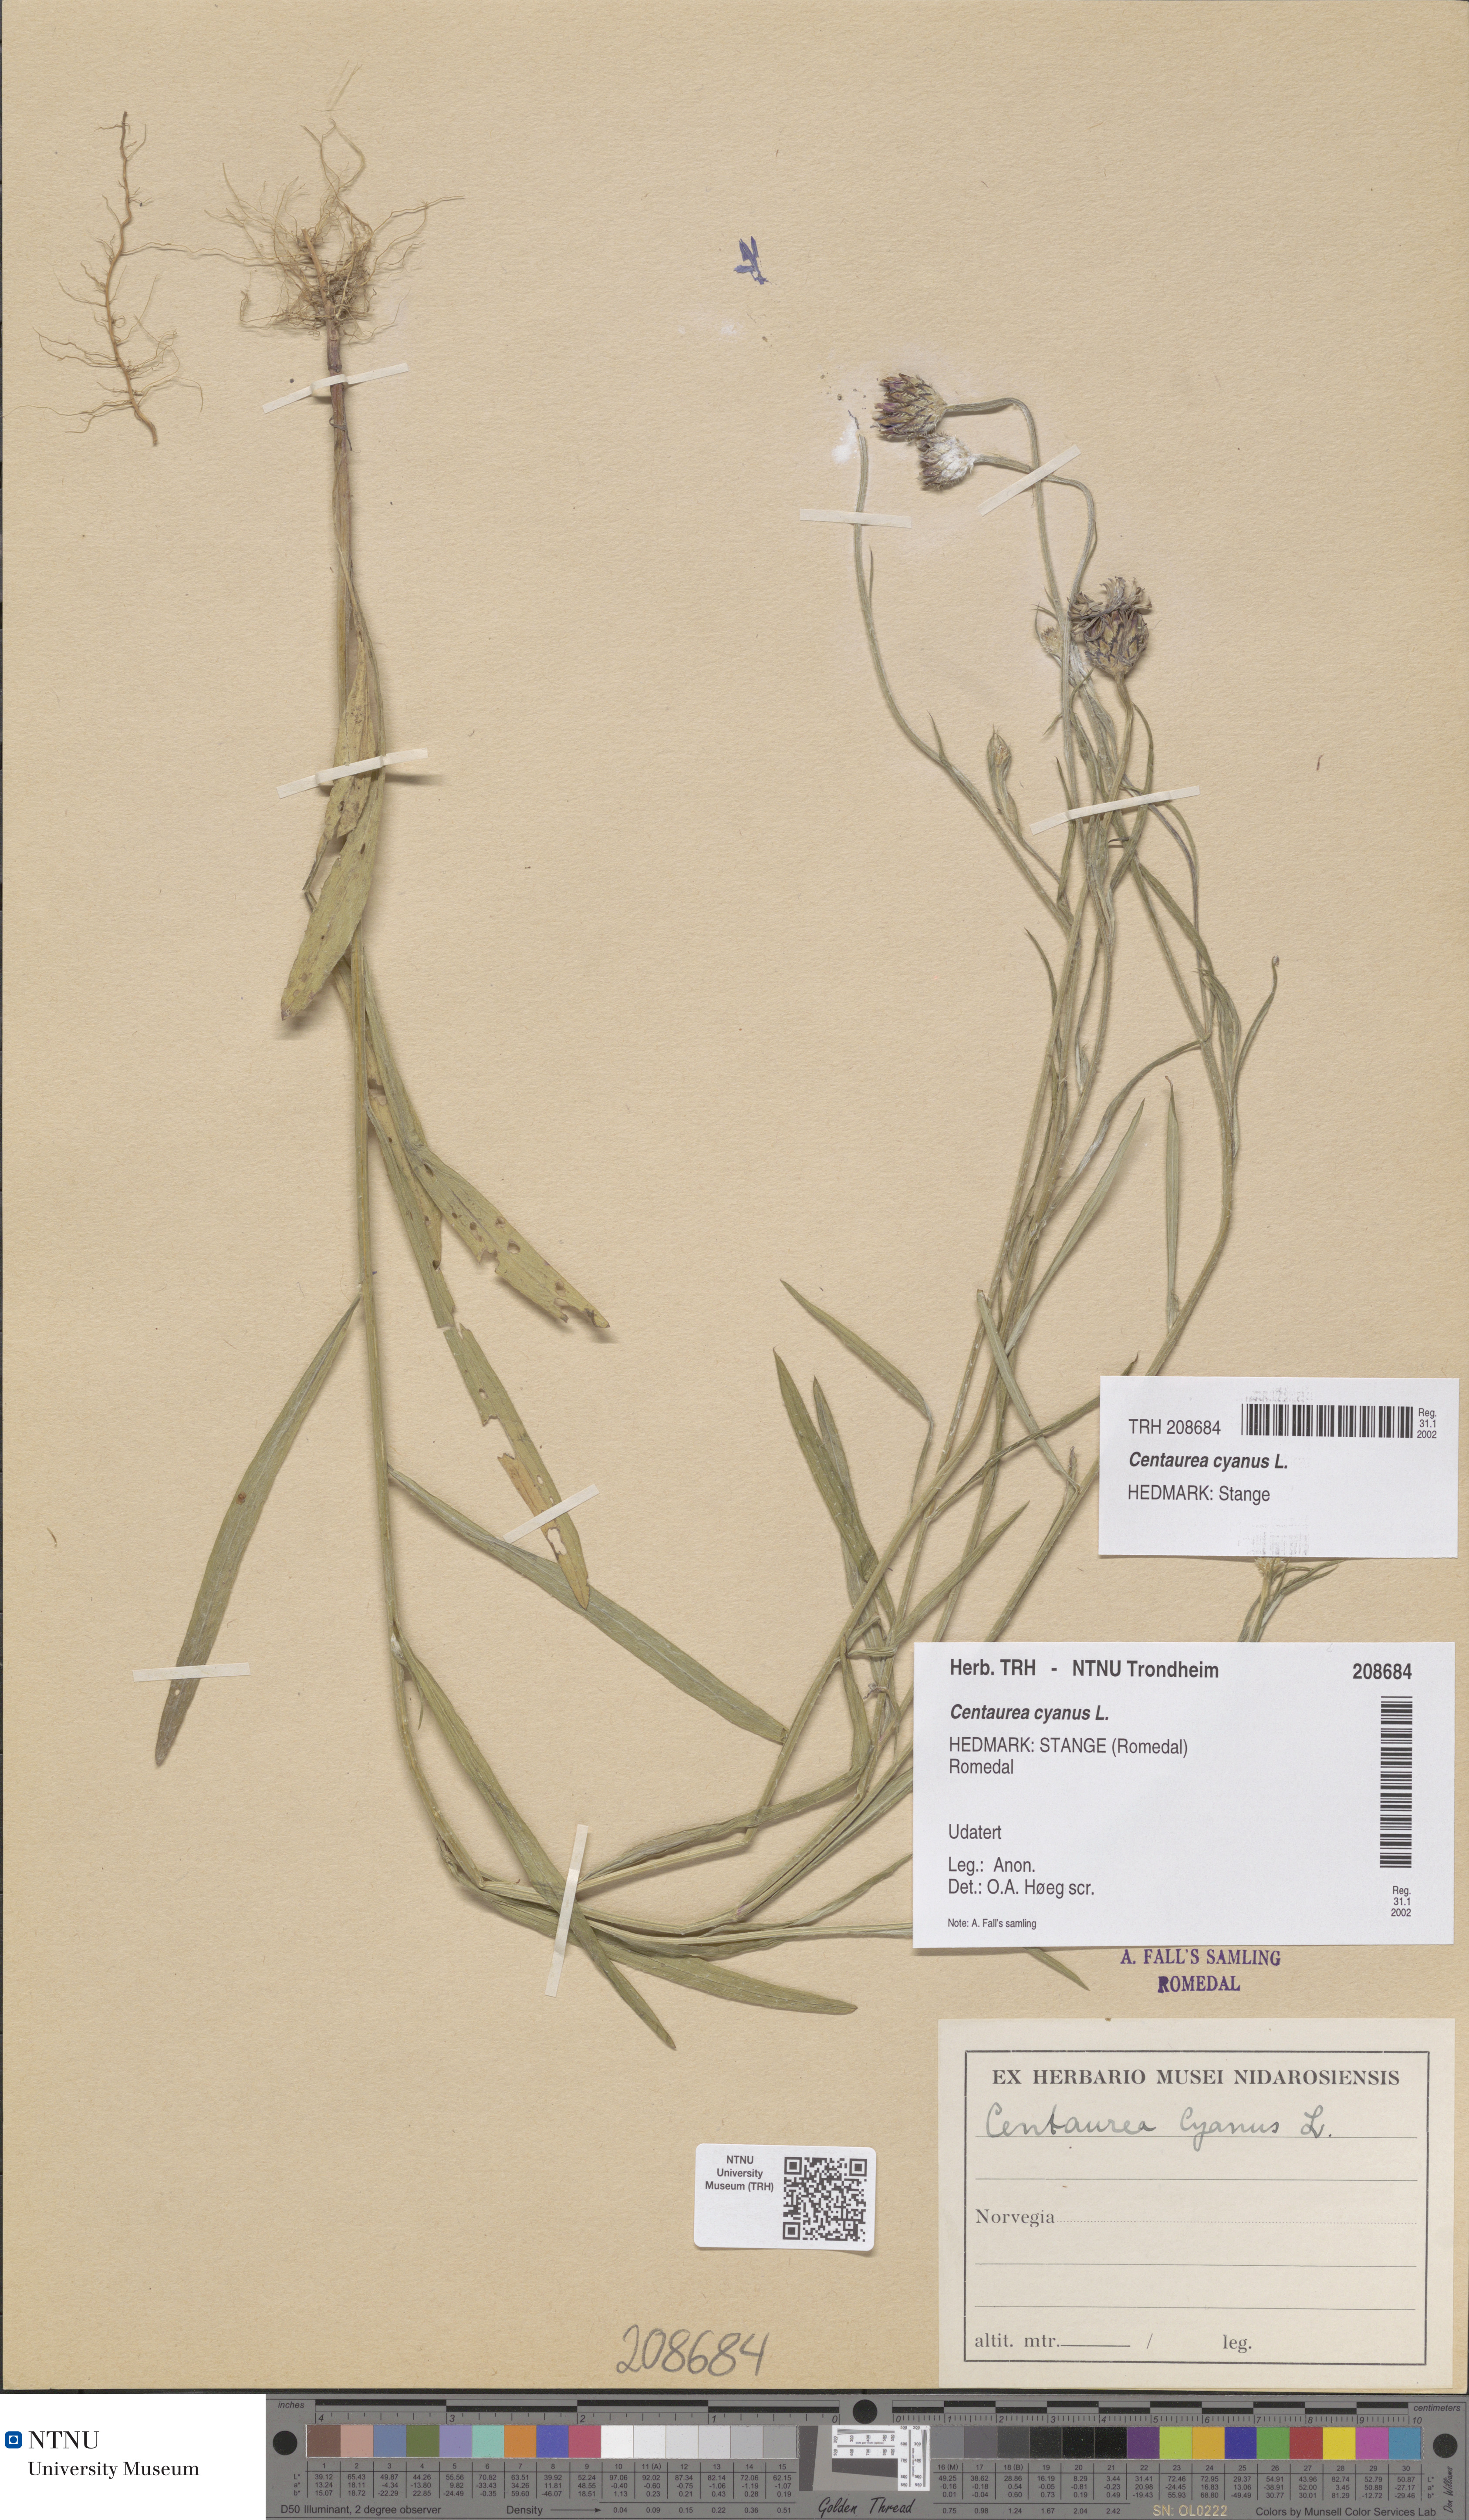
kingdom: Plantae
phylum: Tracheophyta
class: Magnoliopsida
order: Asterales
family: Asteraceae
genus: Centaurea
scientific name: Centaurea cyanus
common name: Cornflower
